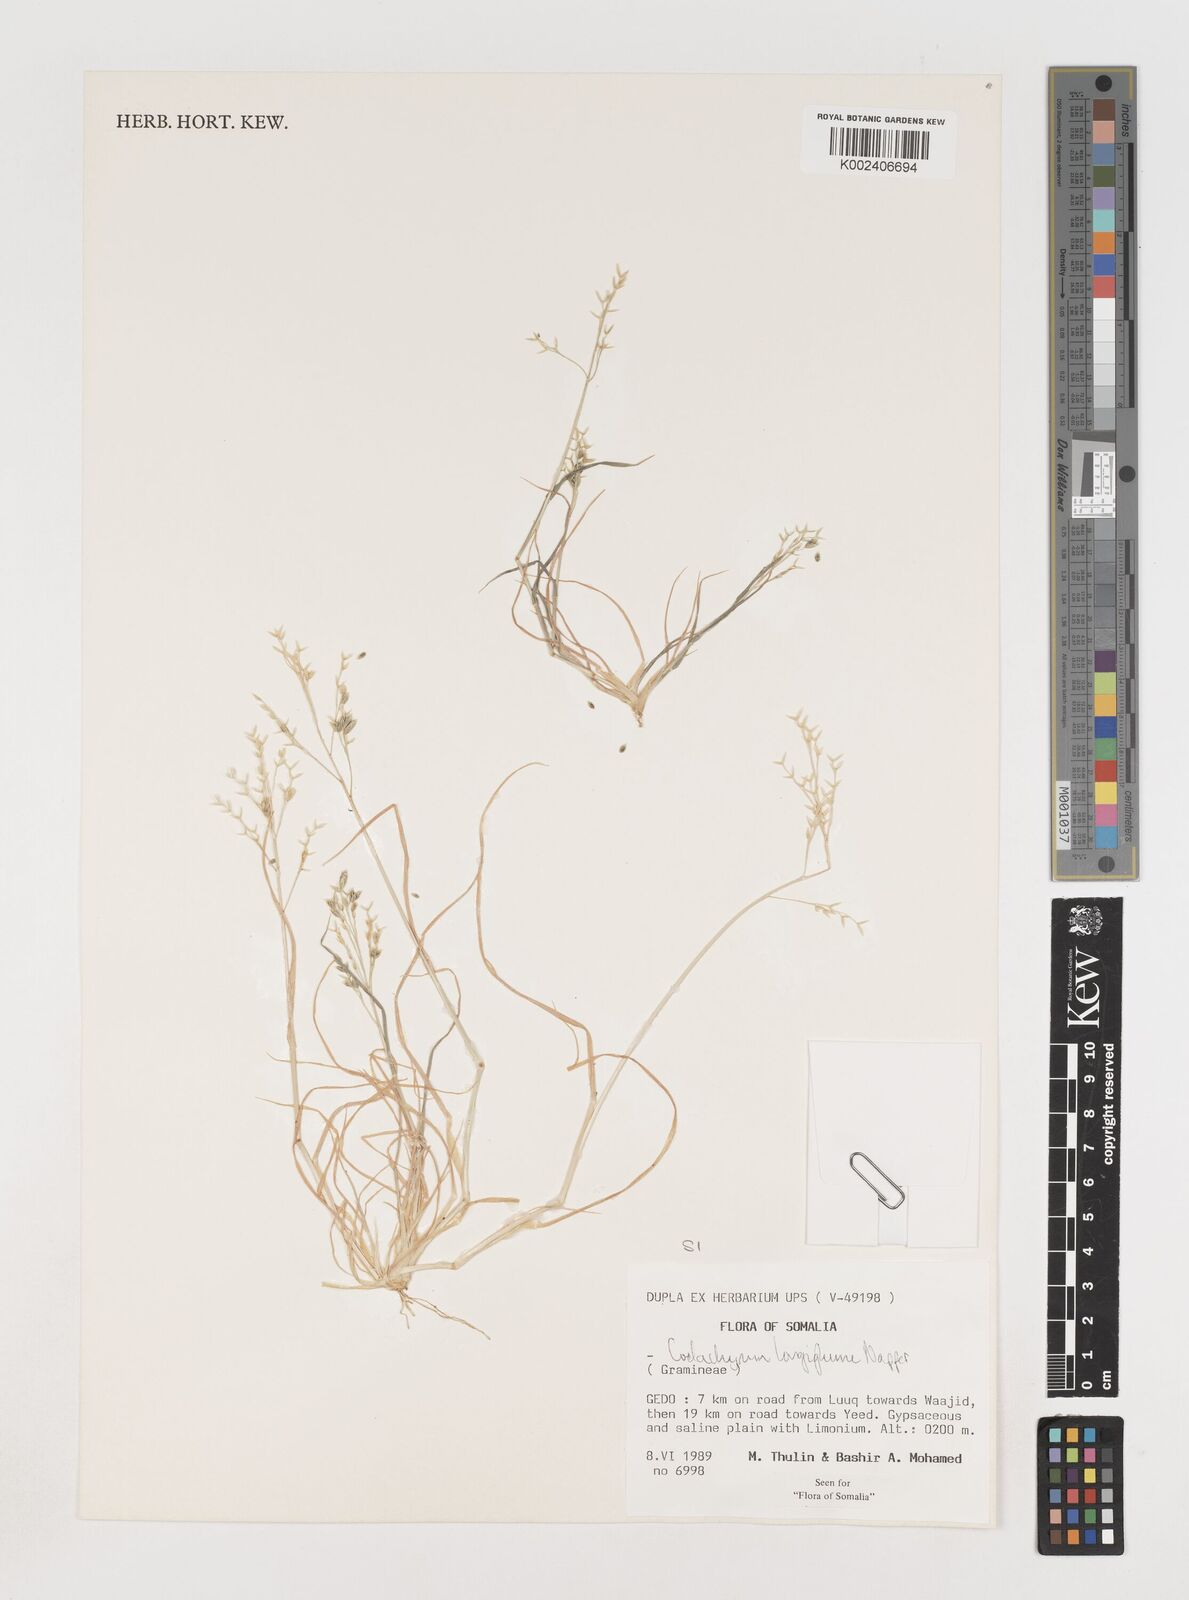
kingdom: Plantae
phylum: Tracheophyta
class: Liliopsida
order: Poales
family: Poaceae
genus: Coelachyrum
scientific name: Coelachyrum longiglume
